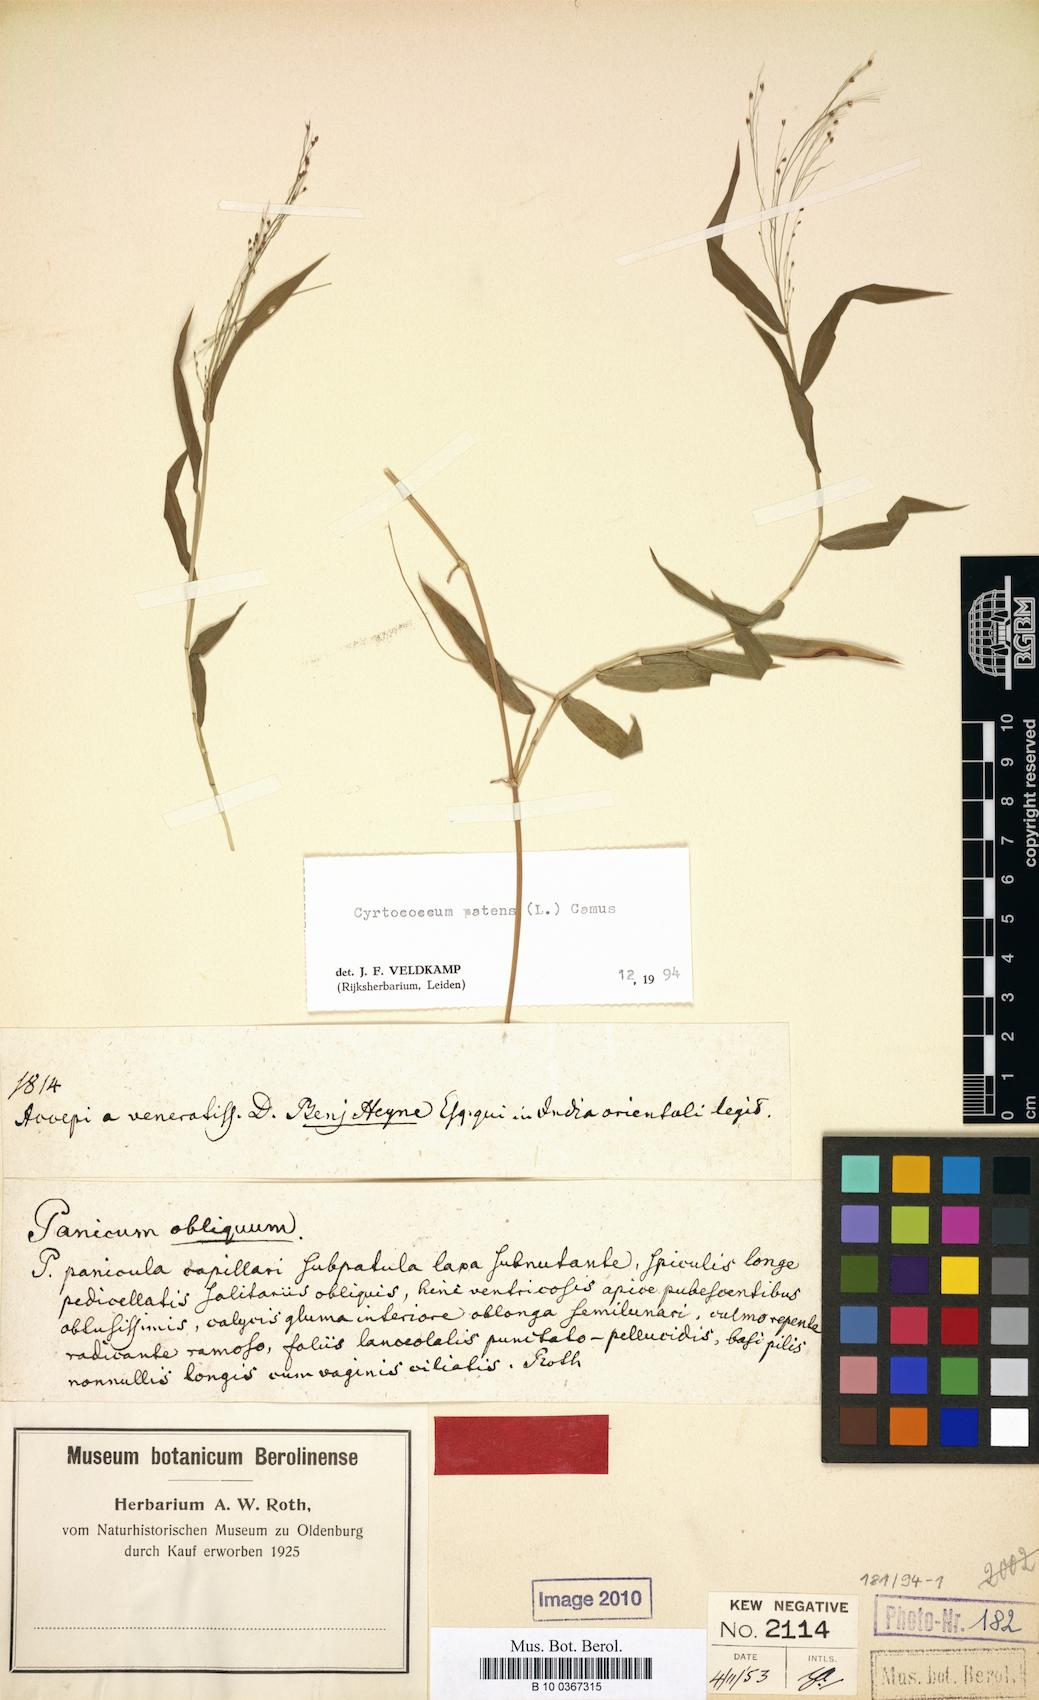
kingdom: Plantae
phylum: Tracheophyta
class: Liliopsida
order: Poales
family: Poaceae
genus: Cyrtococcum
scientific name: Cyrtococcum patens
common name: Broad-leaved bowgrass
